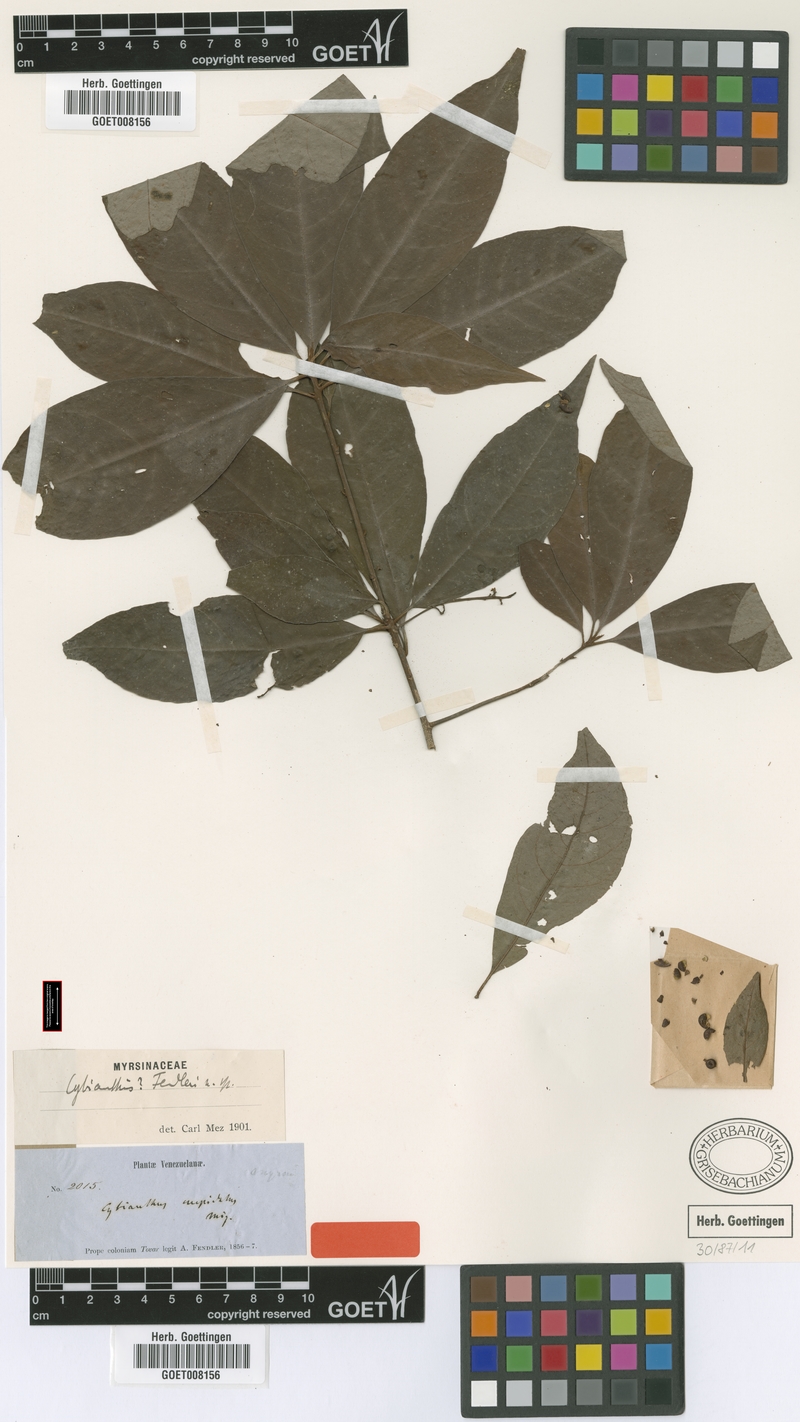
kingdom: Plantae
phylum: Tracheophyta
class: Magnoliopsida
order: Ericales
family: Primulaceae
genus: Cybianthus
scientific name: Cybianthus fendleri
